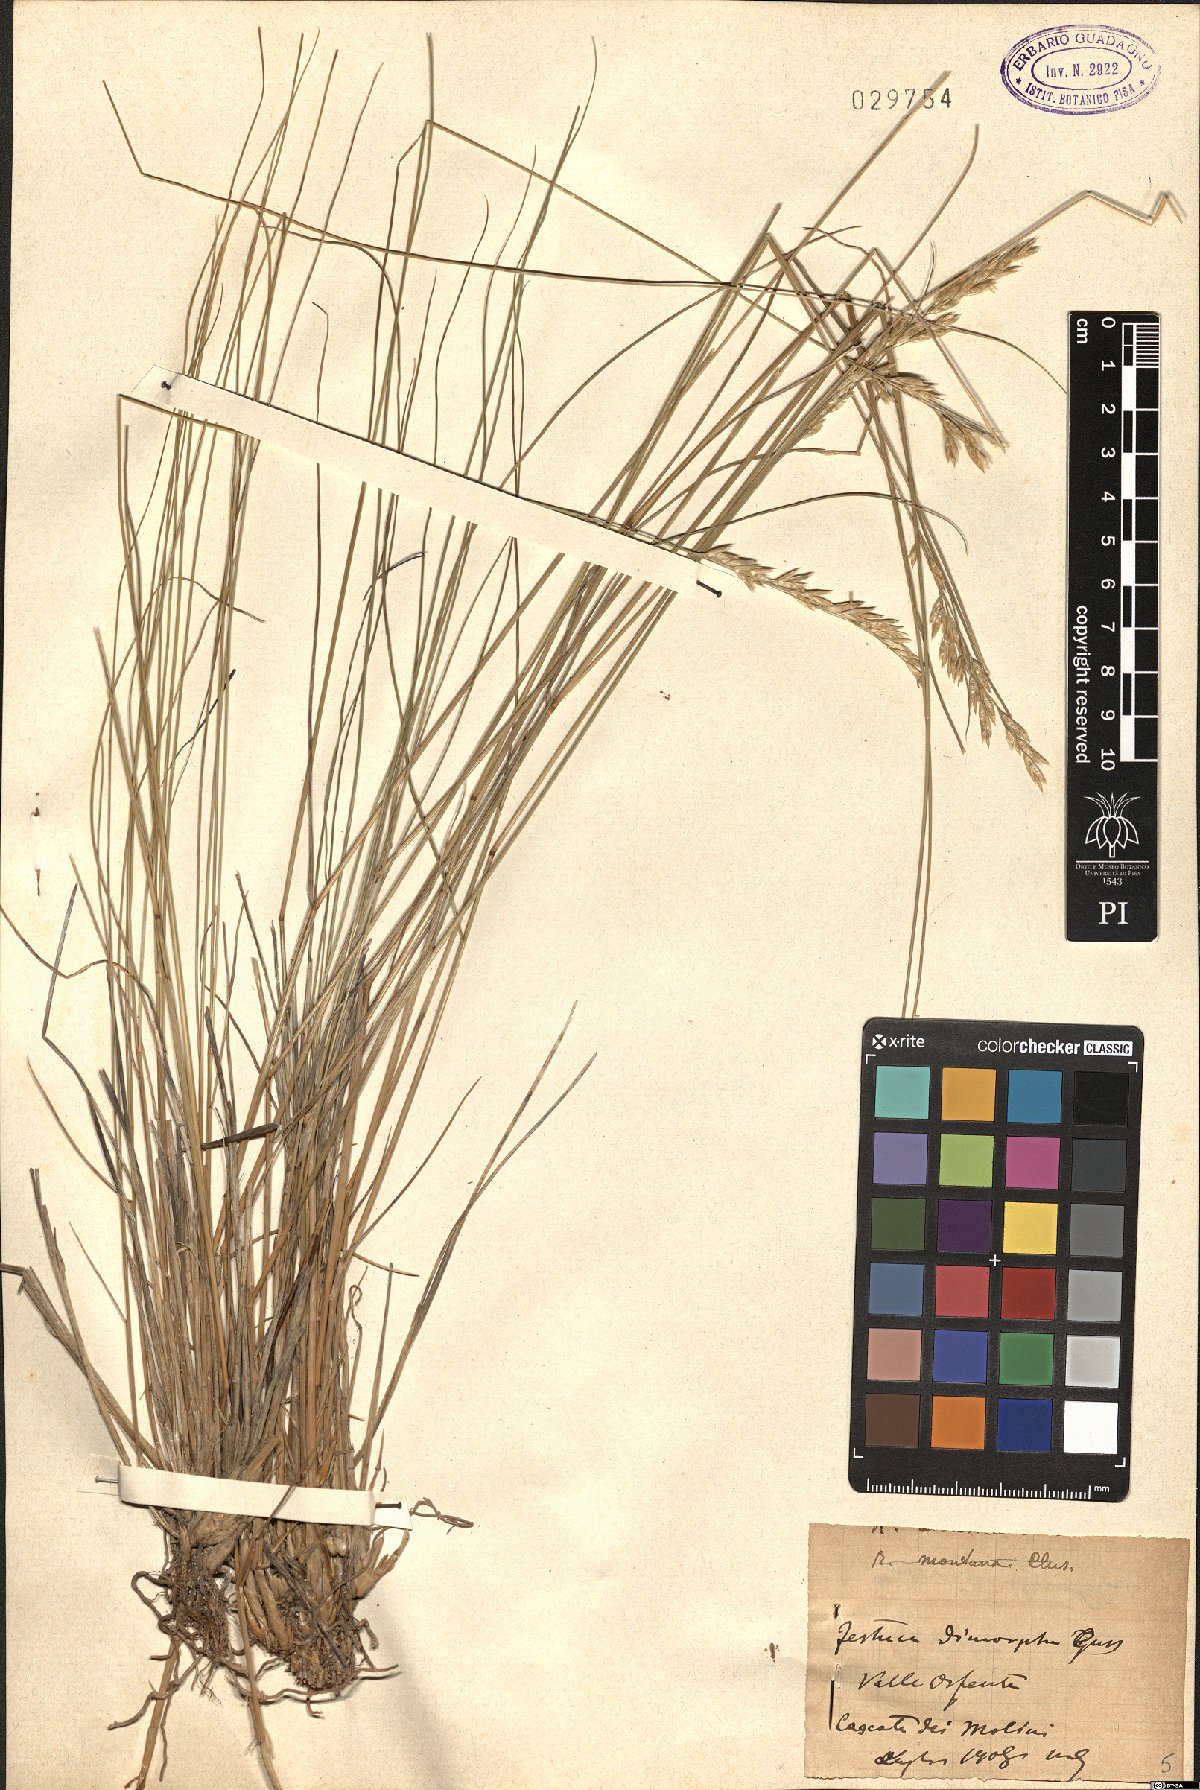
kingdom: Plantae
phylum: Tracheophyta
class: Liliopsida
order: Poales
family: Poaceae
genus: Festuca
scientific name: Festuca dimorpha
